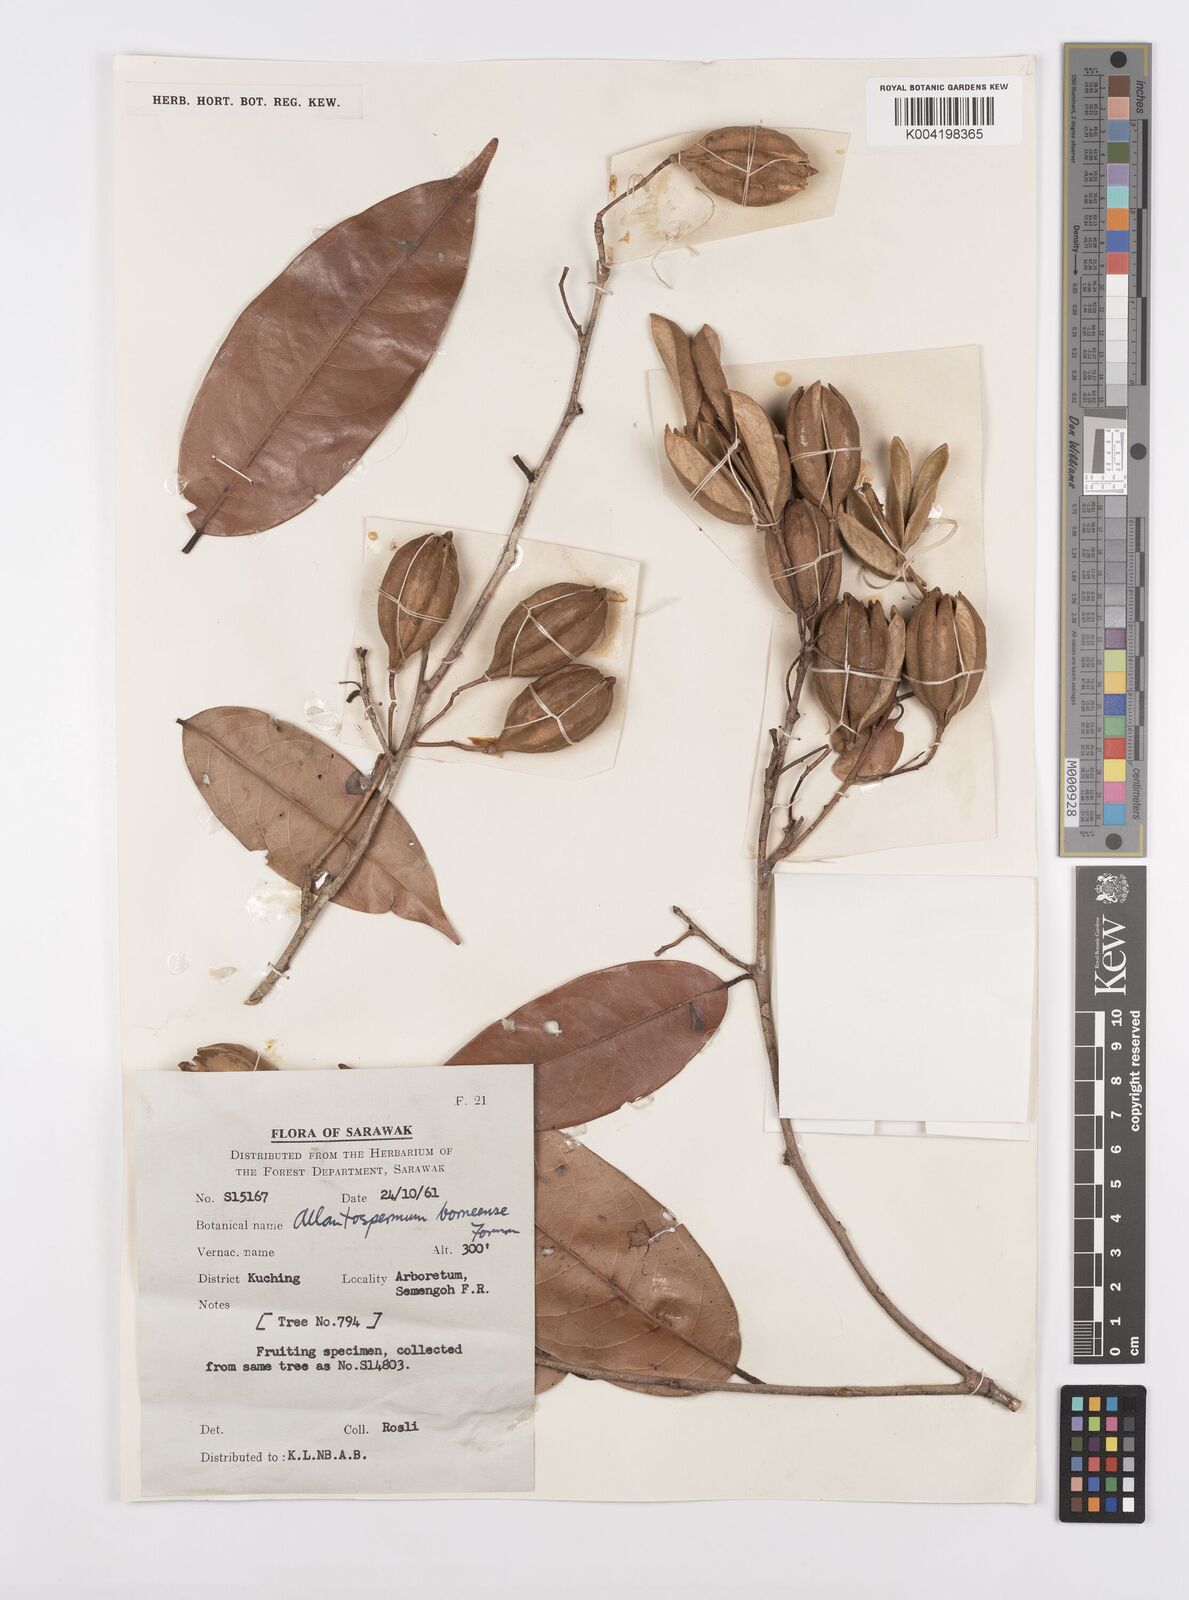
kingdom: Plantae
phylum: Tracheophyta
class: Magnoliopsida
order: Malpighiales
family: Ixonanthaceae
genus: Allantospermum
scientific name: Allantospermum borneense
